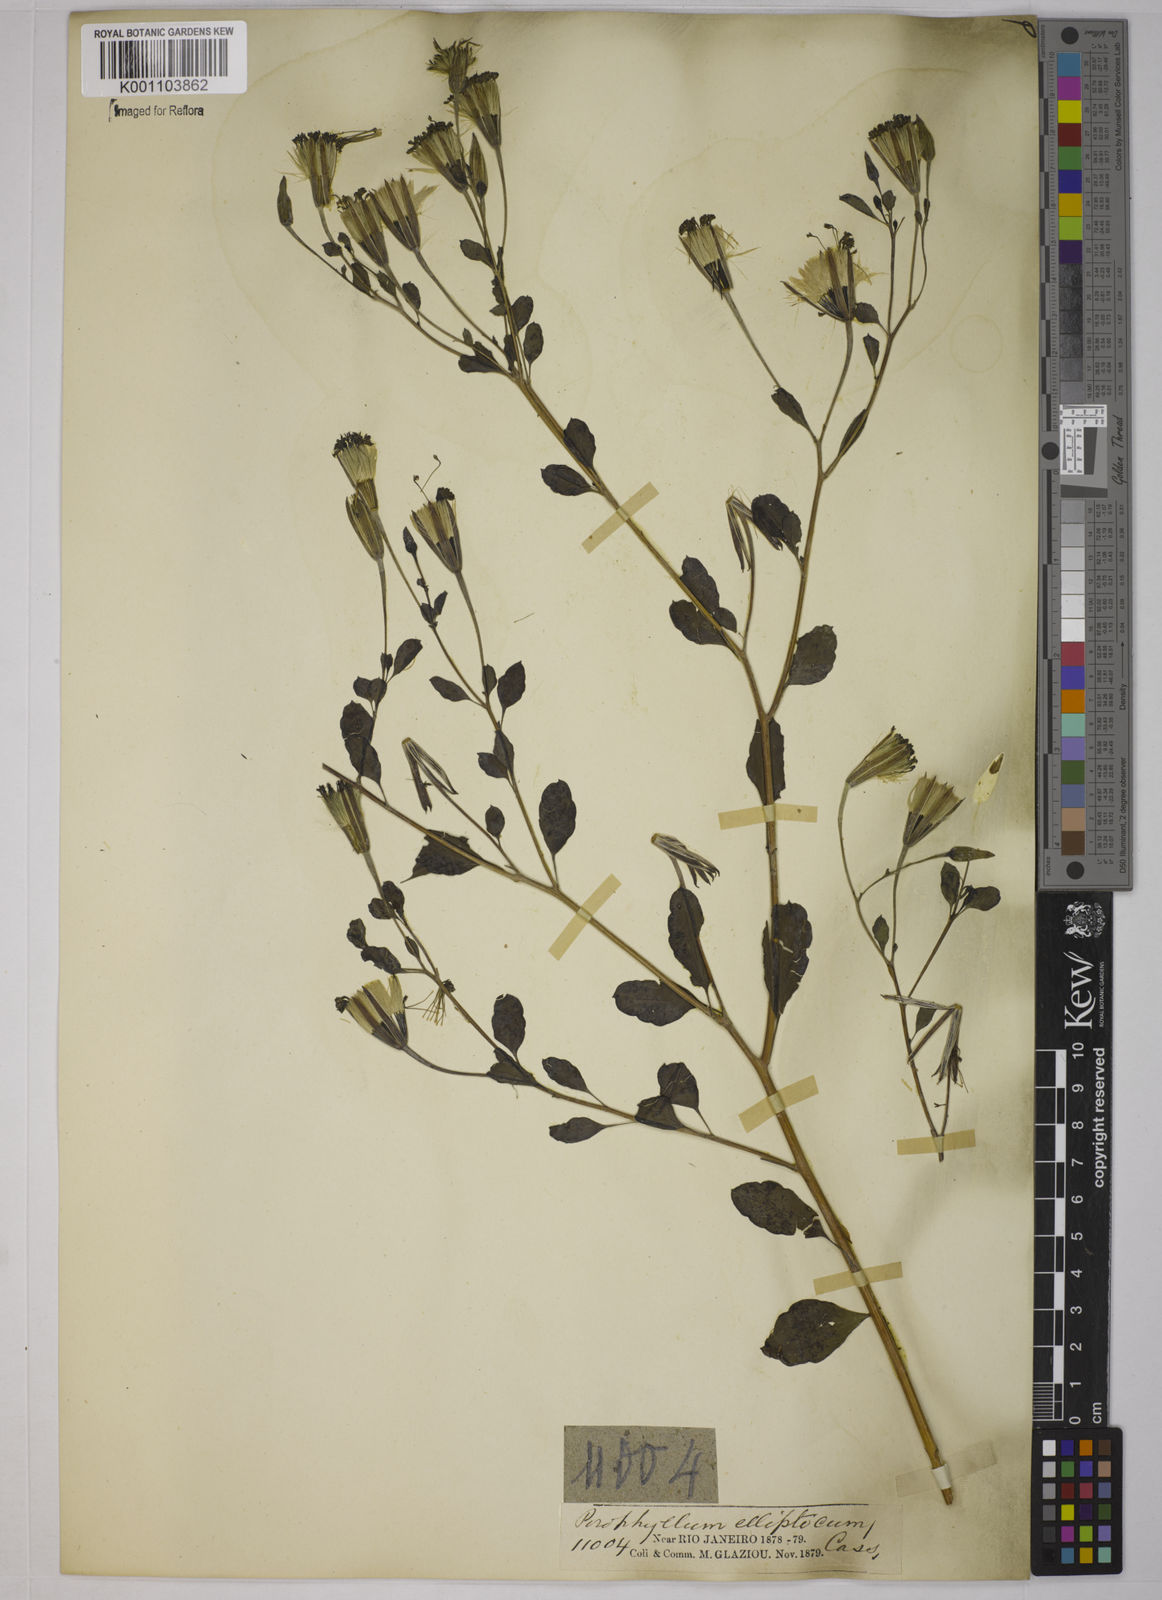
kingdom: Plantae
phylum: Tracheophyta
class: Magnoliopsida
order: Asterales
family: Asteraceae
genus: Porophyllum
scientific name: Porophyllum ruderale
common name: Yerba porosa
